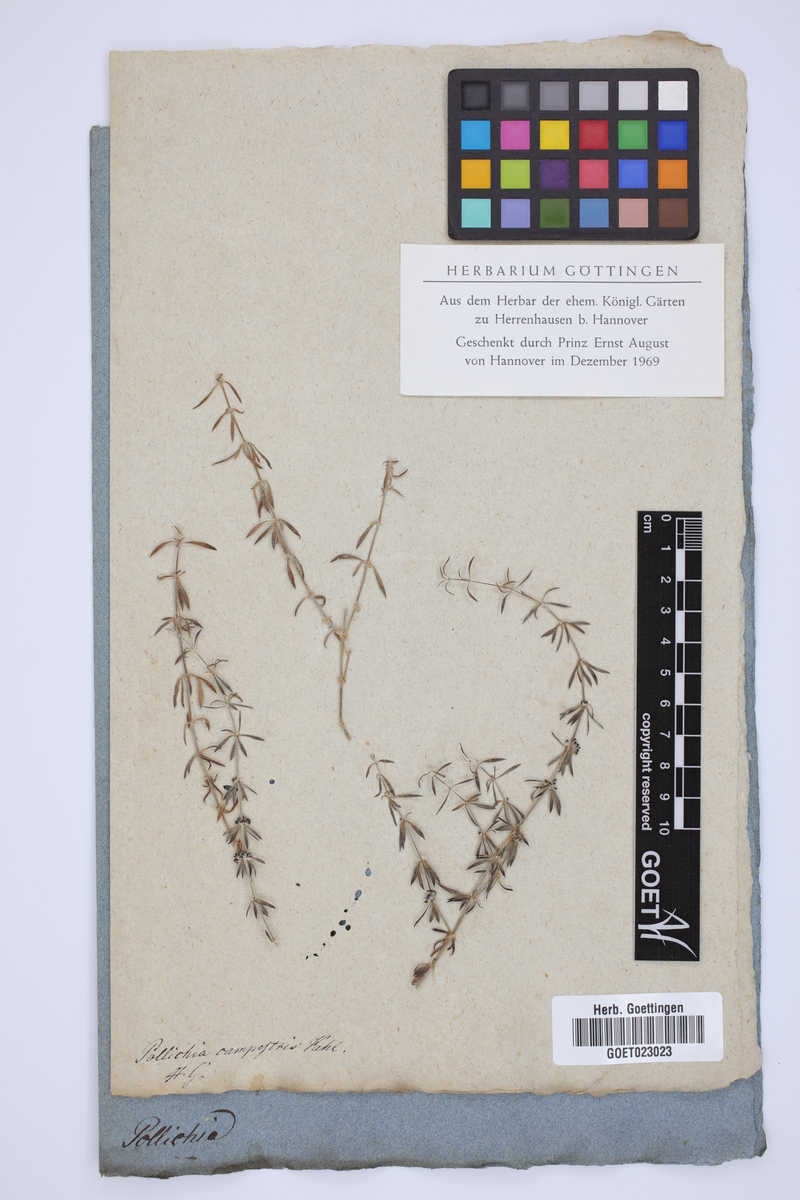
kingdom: Plantae
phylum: Tracheophyta
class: Magnoliopsida
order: Caryophyllales
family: Caryophyllaceae
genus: Pollichia
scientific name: Pollichia campestris
